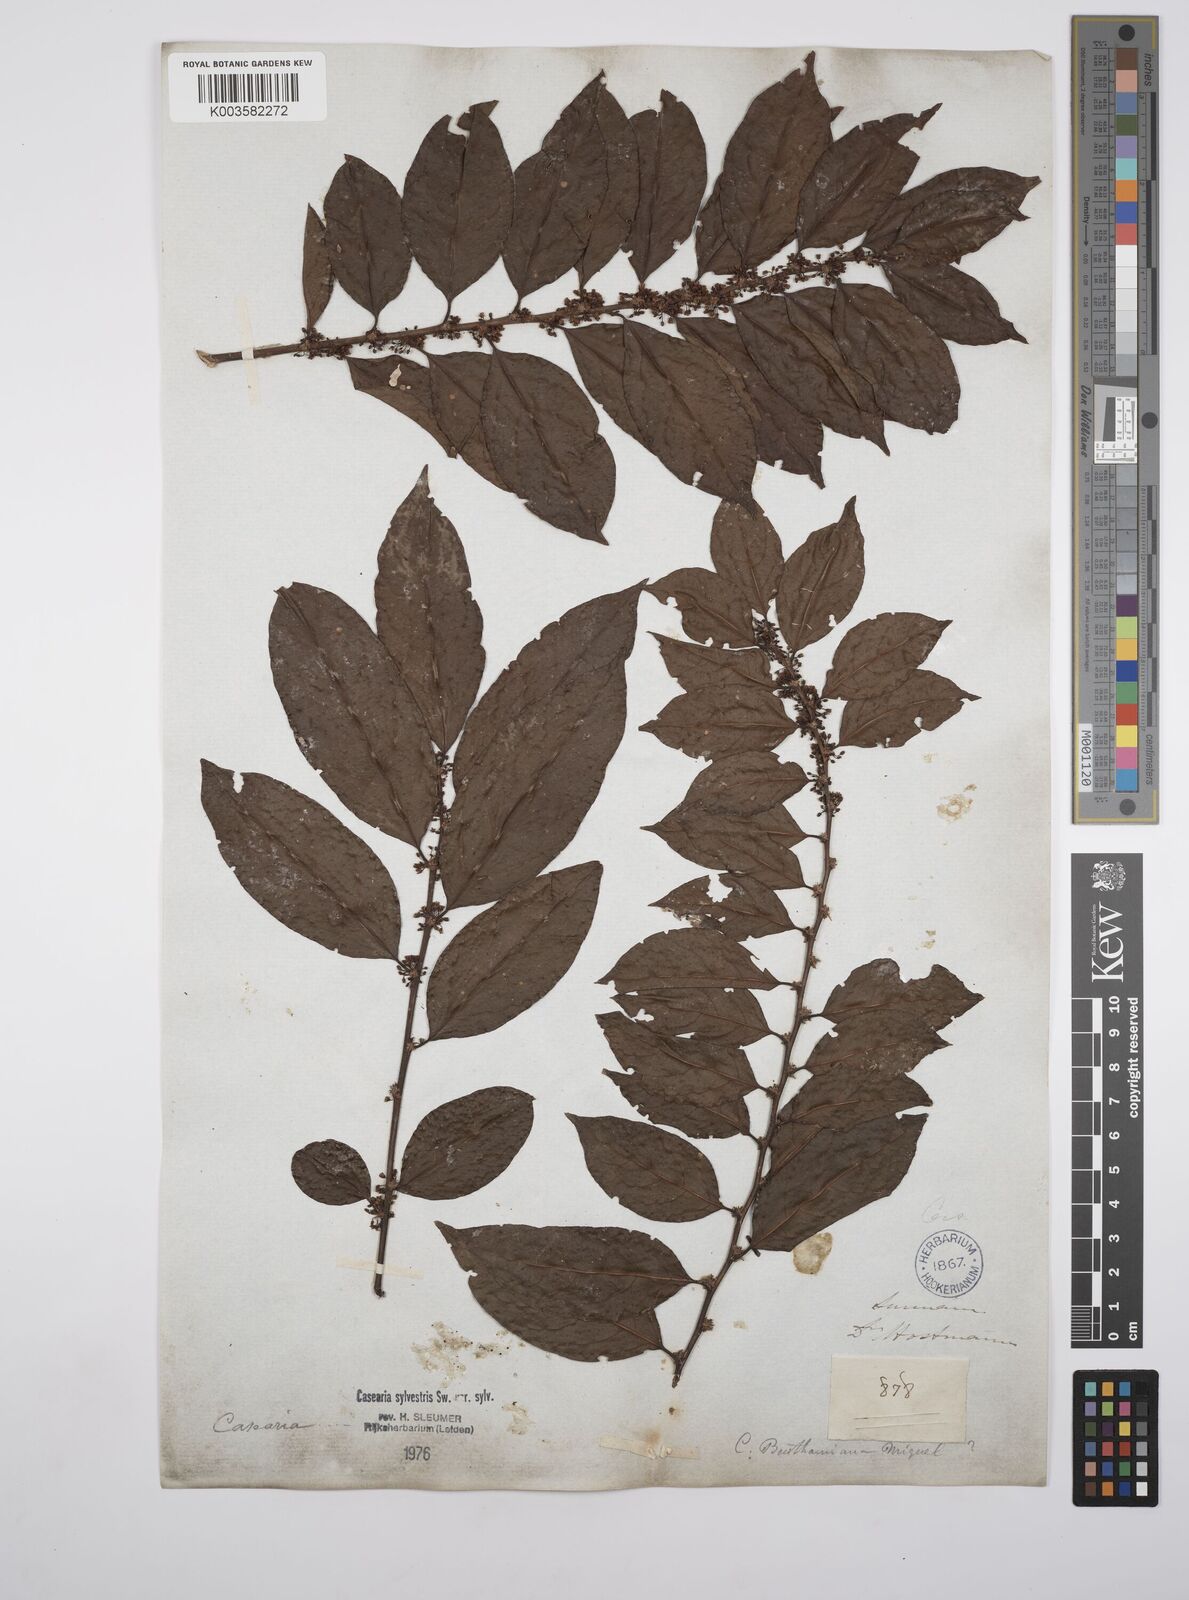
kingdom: Plantae
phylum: Tracheophyta
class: Magnoliopsida
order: Malpighiales
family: Salicaceae
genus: Casearia
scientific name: Casearia sylvestris
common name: Wild sage
